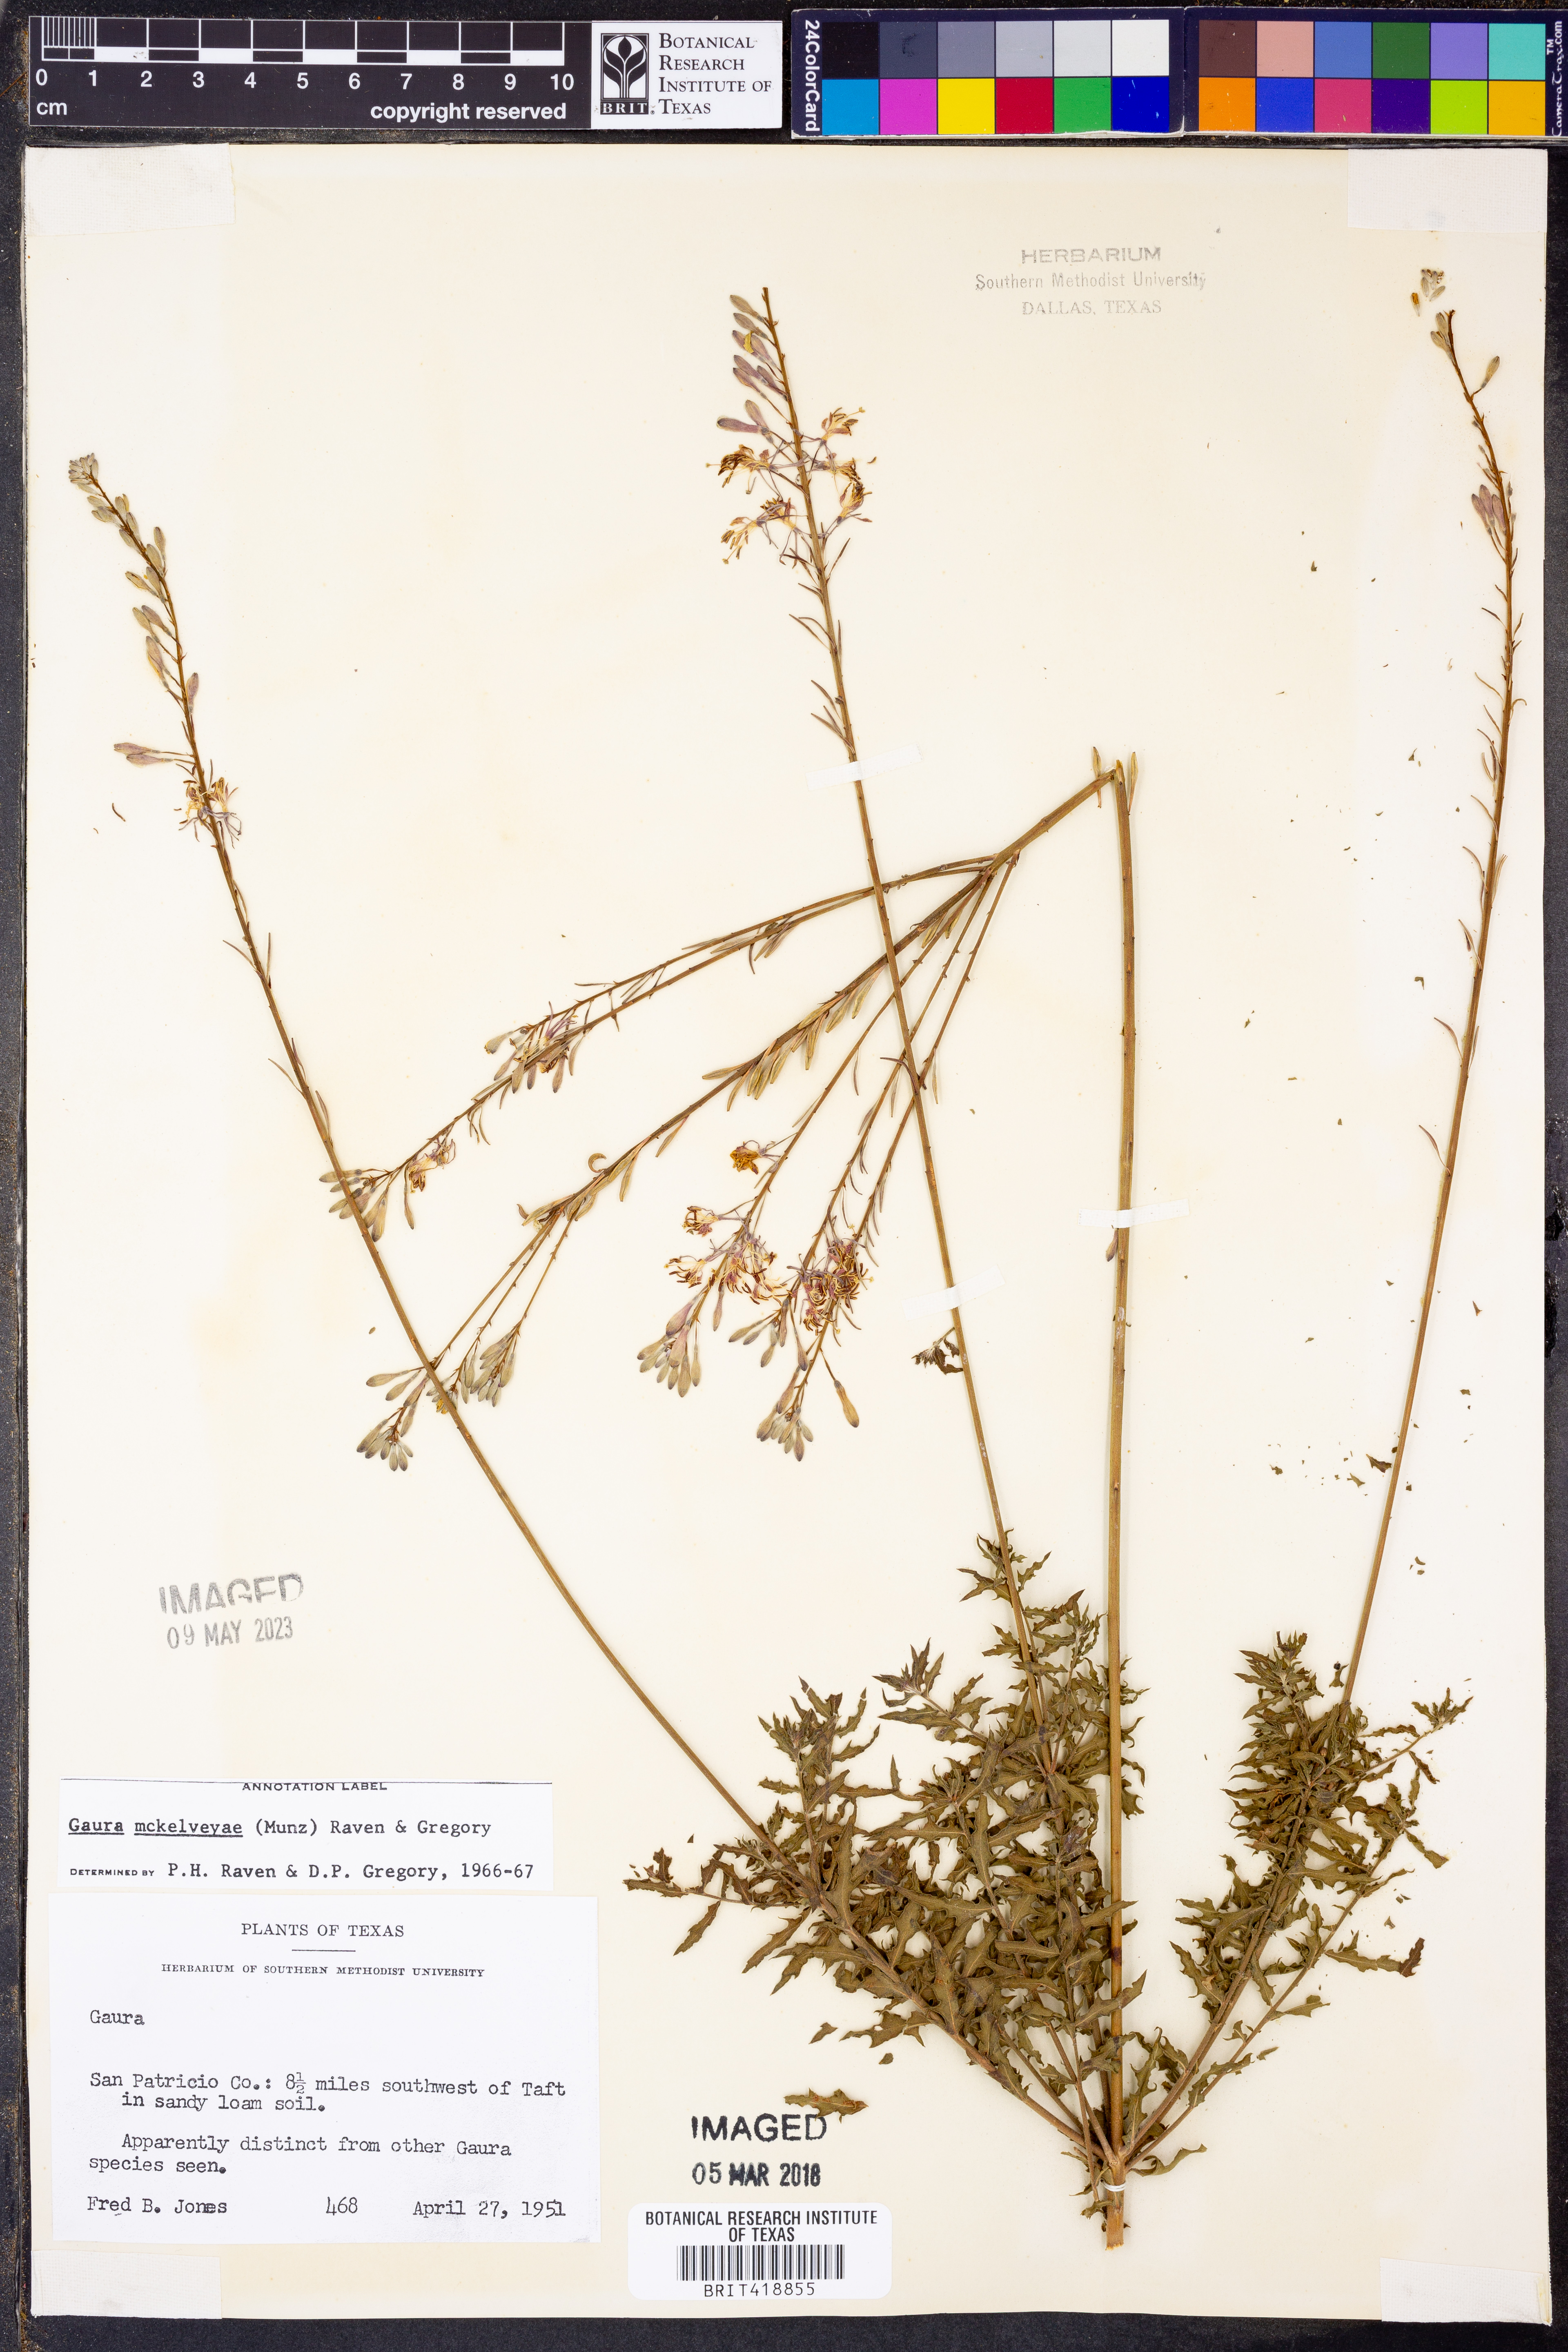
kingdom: Plantae
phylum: Tracheophyta
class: Magnoliopsida
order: Myrtales
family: Onagraceae
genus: Oenothera
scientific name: Oenothera mckelveyae
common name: Mckelvey's beeblossom
